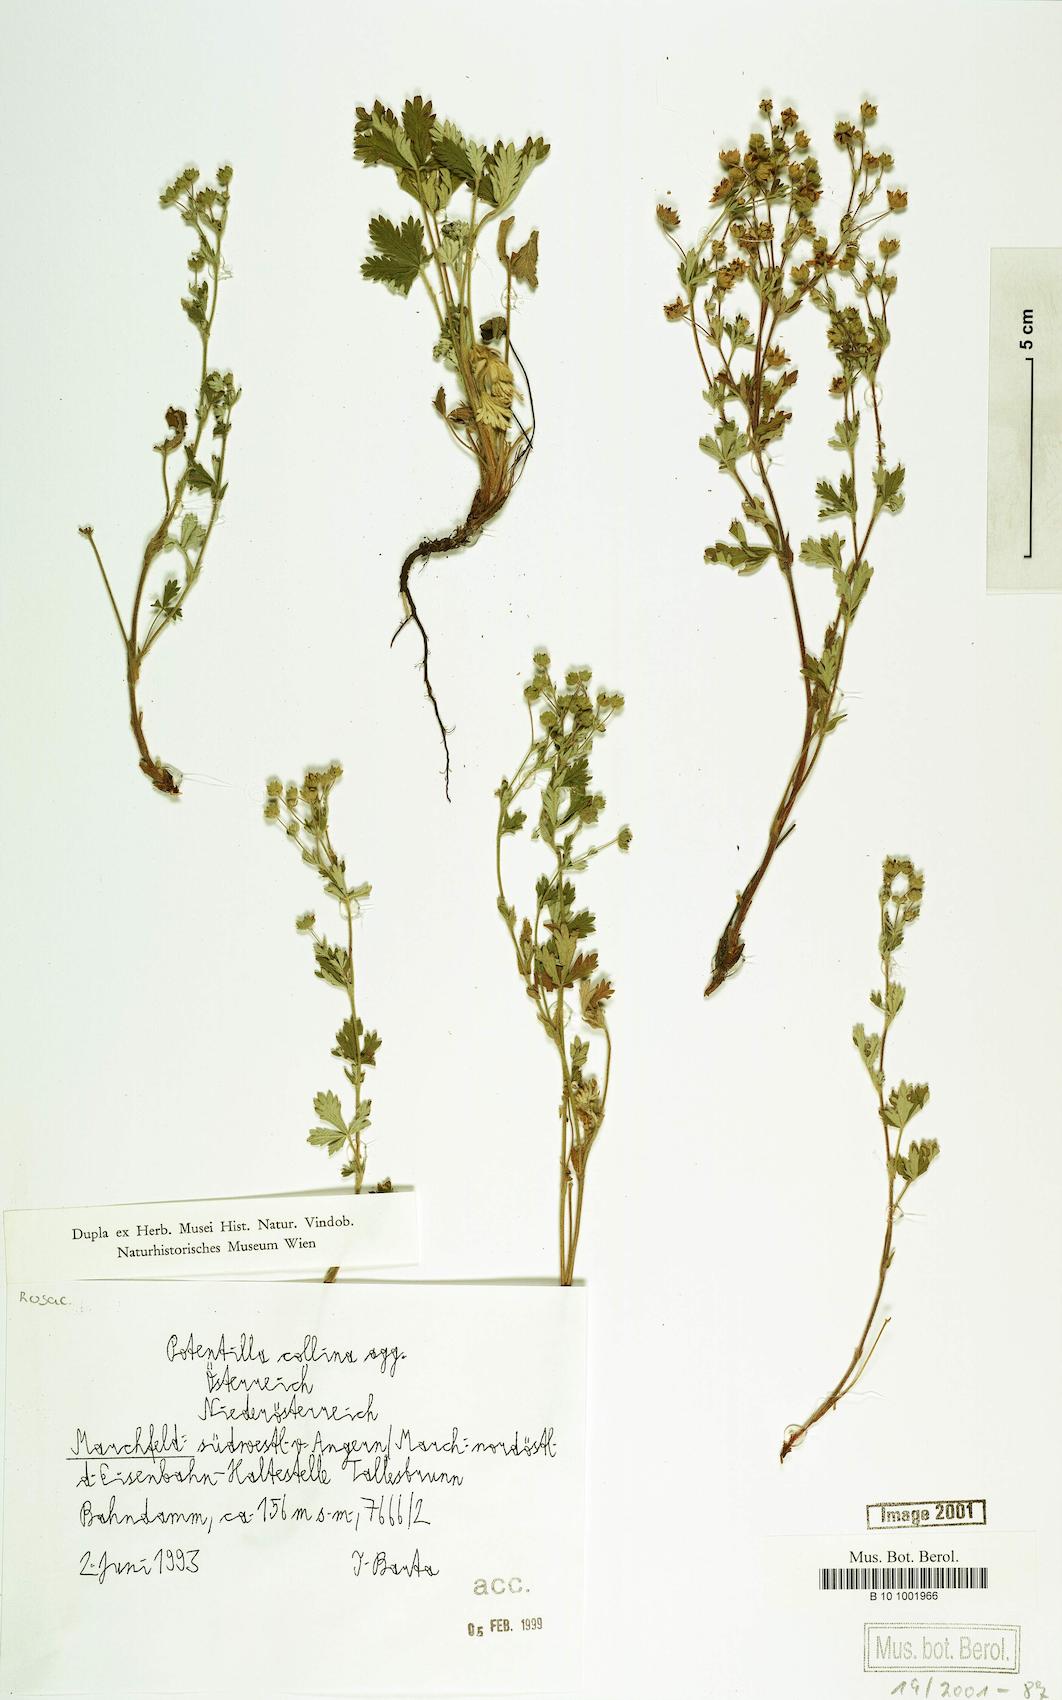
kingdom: Plantae
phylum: Tracheophyta
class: Magnoliopsida
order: Rosales
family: Rosaceae
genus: Potentilla
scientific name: Potentilla collina
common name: Palmleaf cinquefoil
